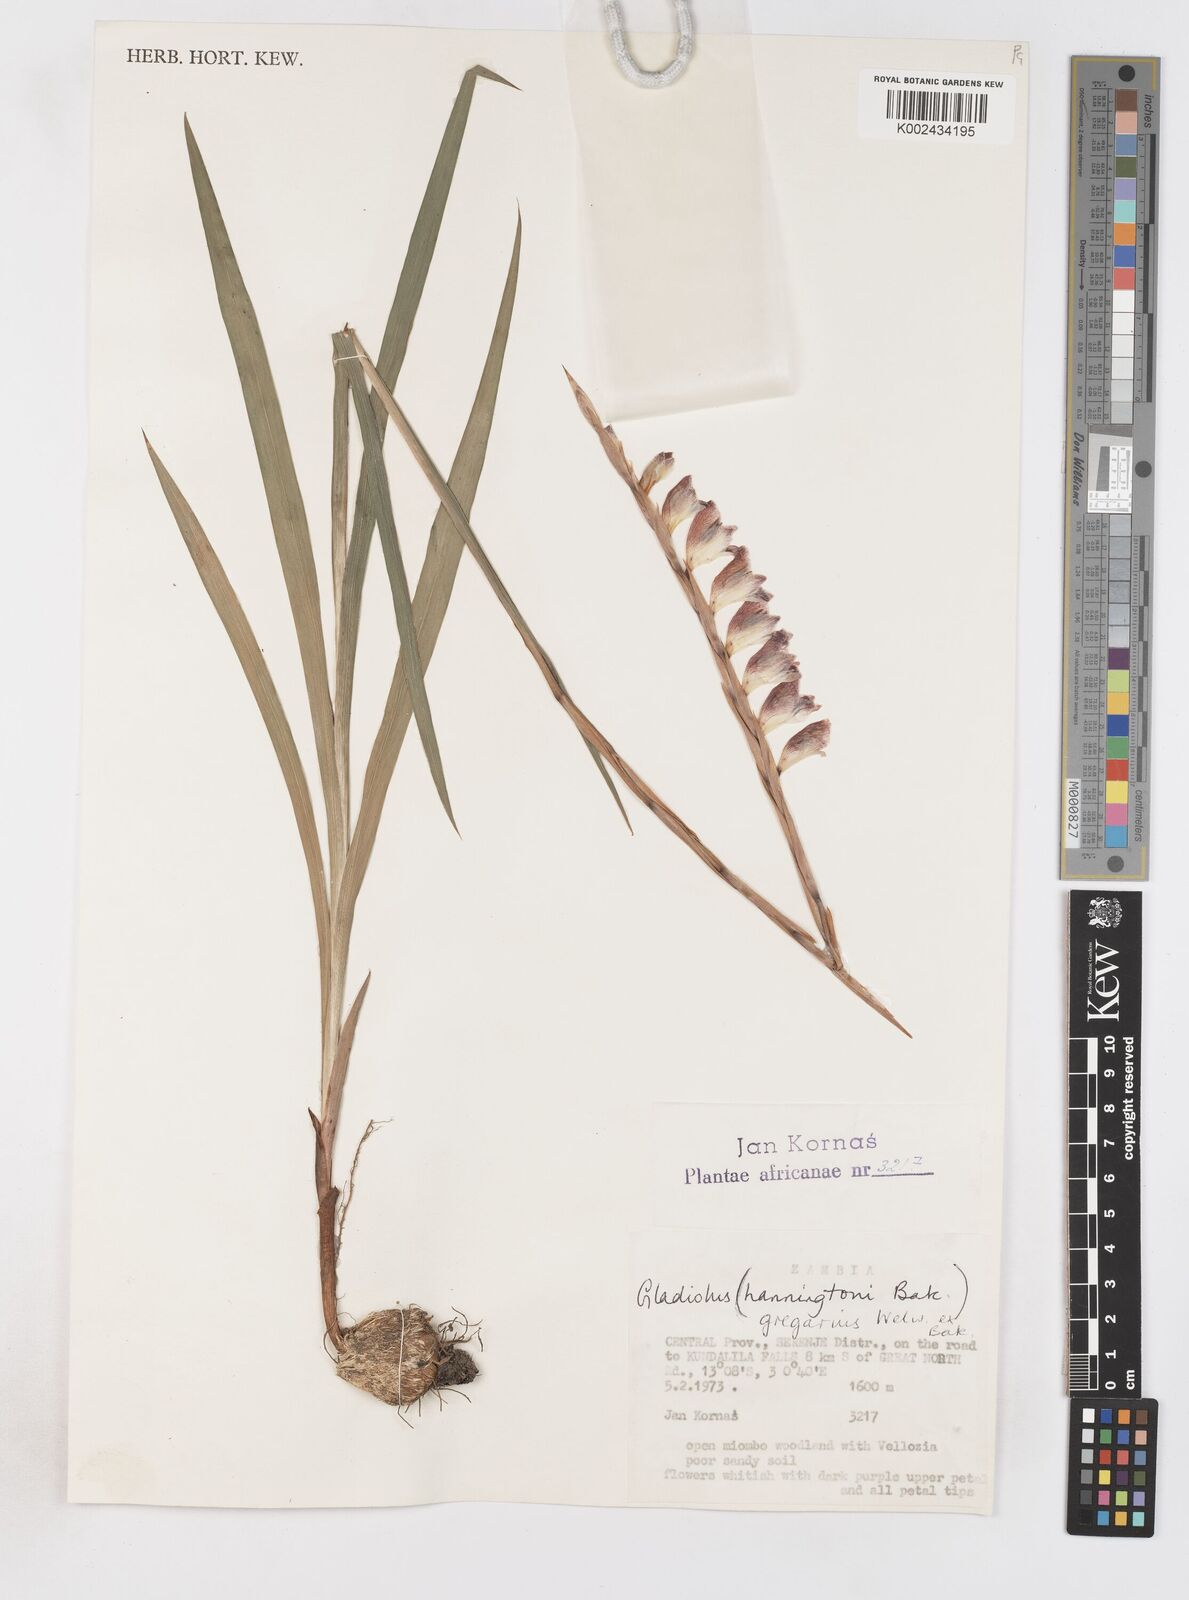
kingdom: Plantae
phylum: Tracheophyta
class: Liliopsida
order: Asparagales
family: Iridaceae
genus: Gladiolus
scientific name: Gladiolus gregarius
